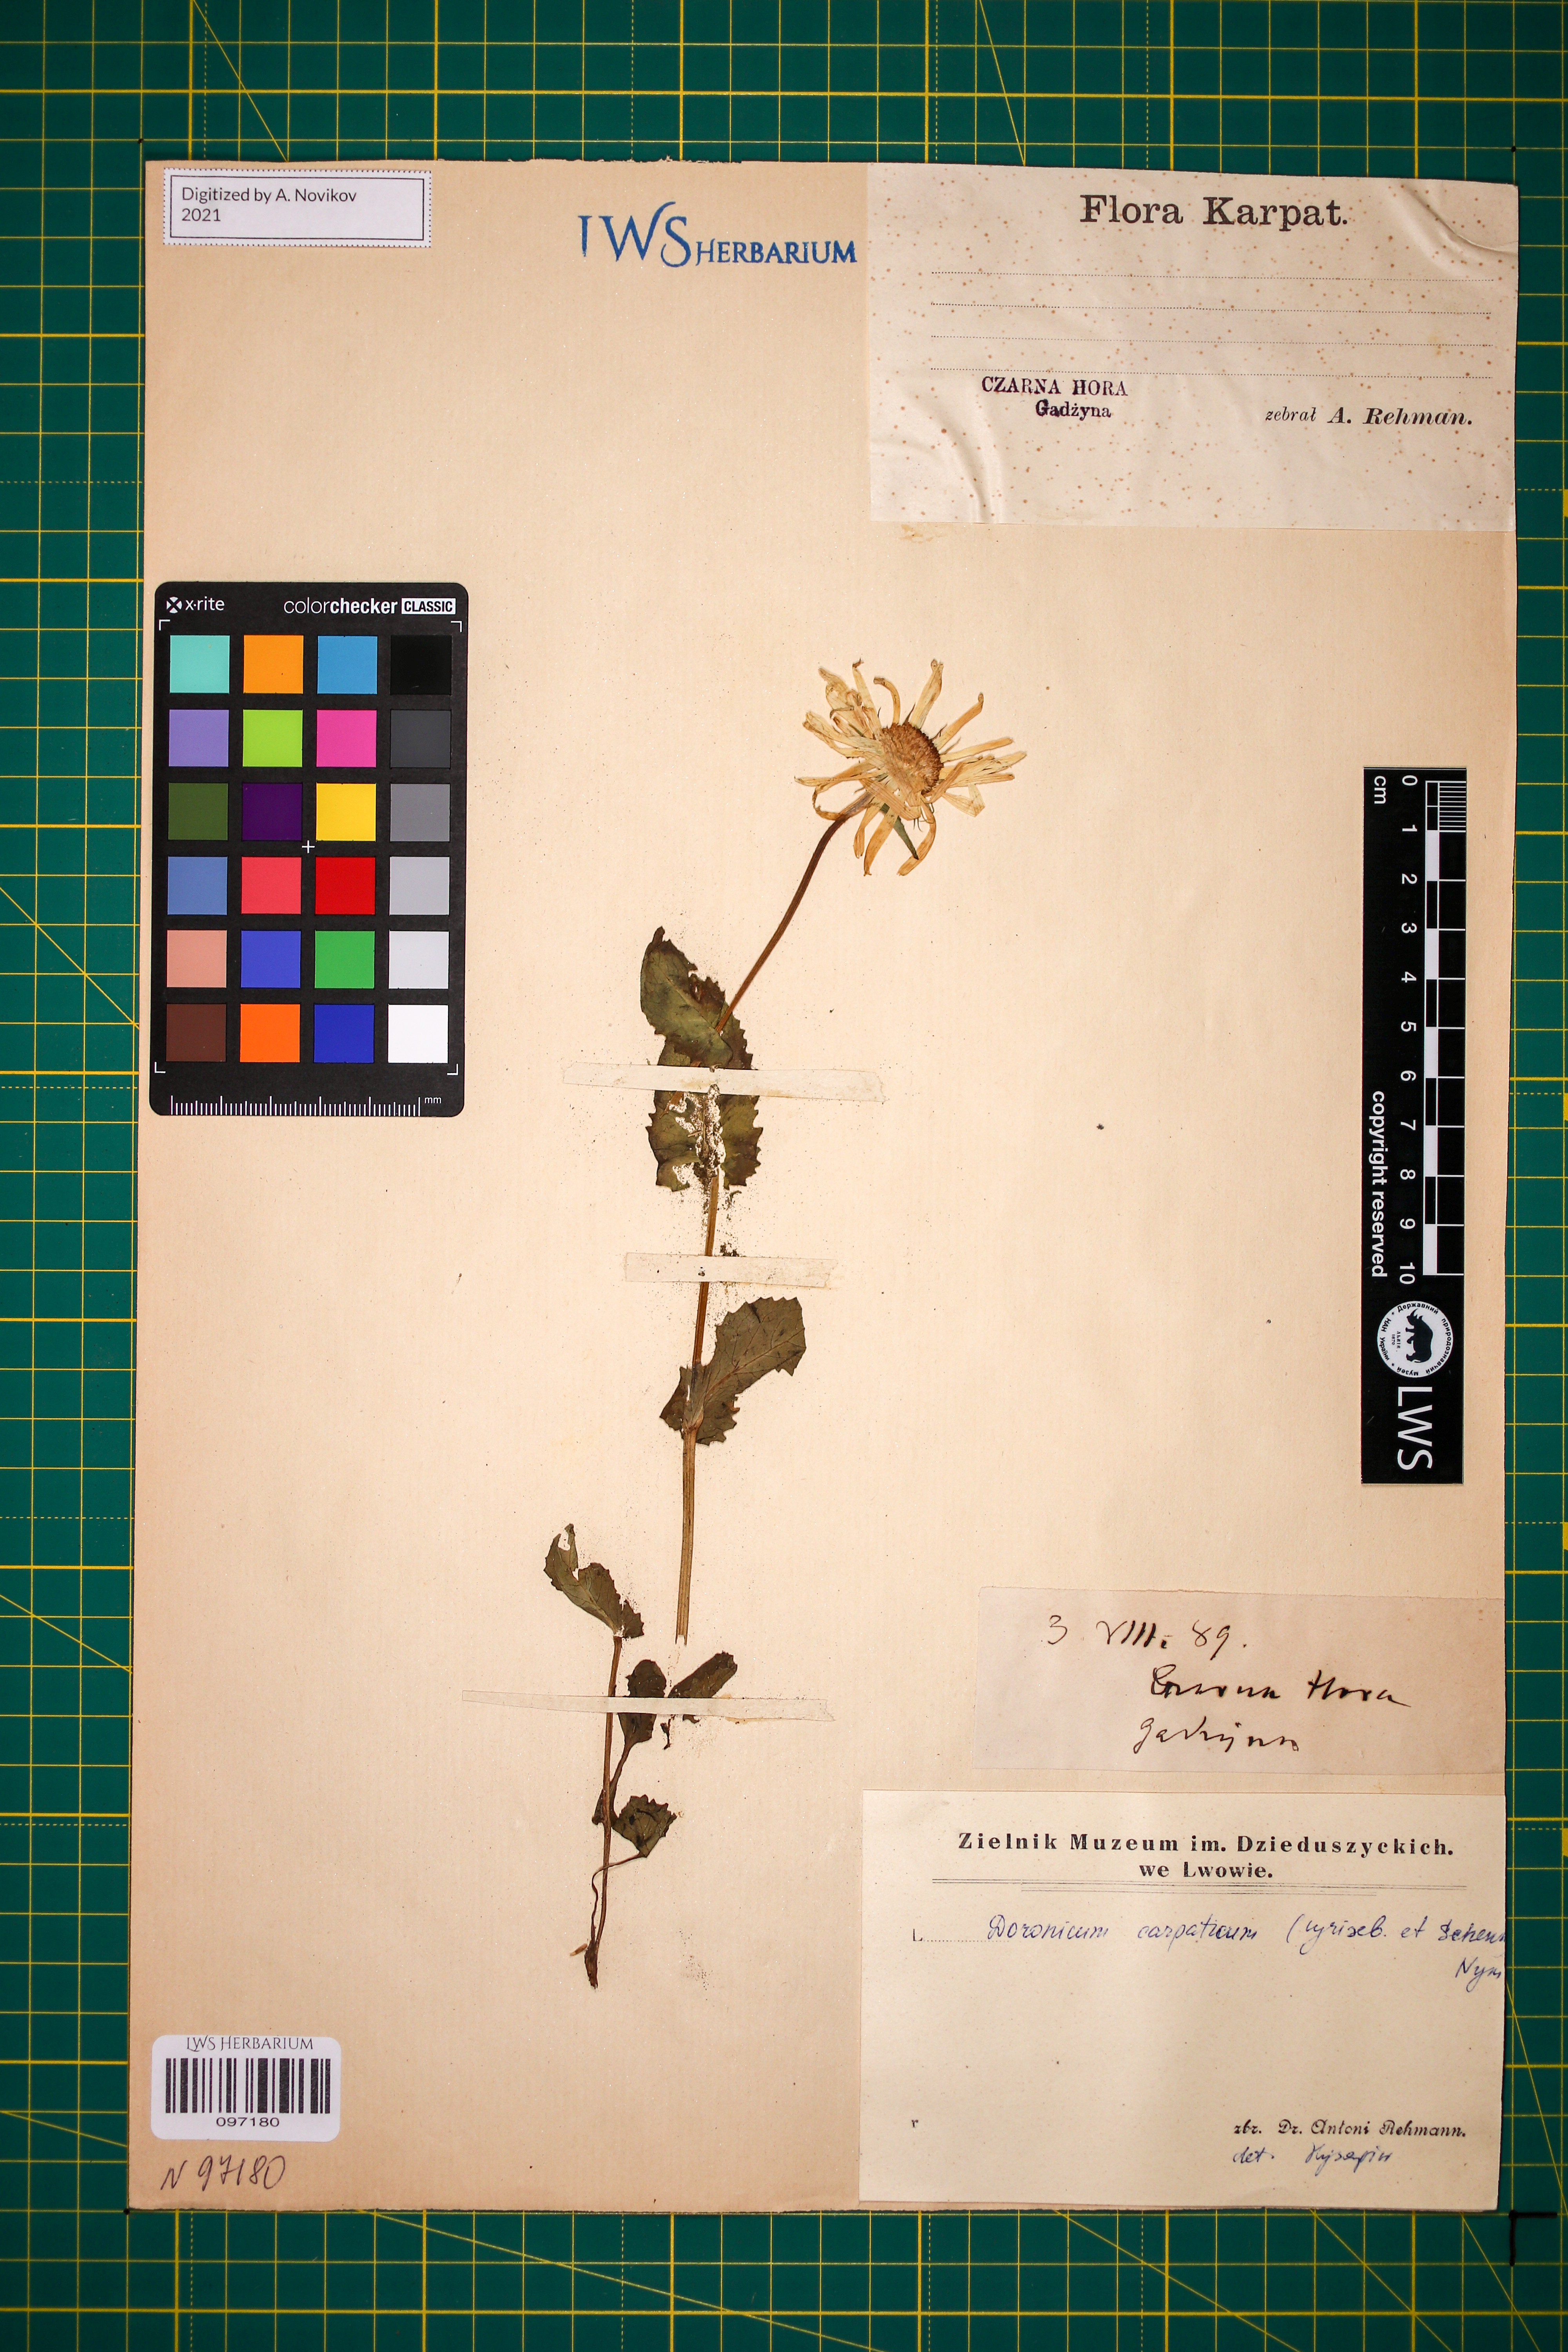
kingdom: Plantae
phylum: Tracheophyta
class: Magnoliopsida
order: Asterales
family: Asteraceae
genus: Doronicum
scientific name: Doronicum carpaticum
